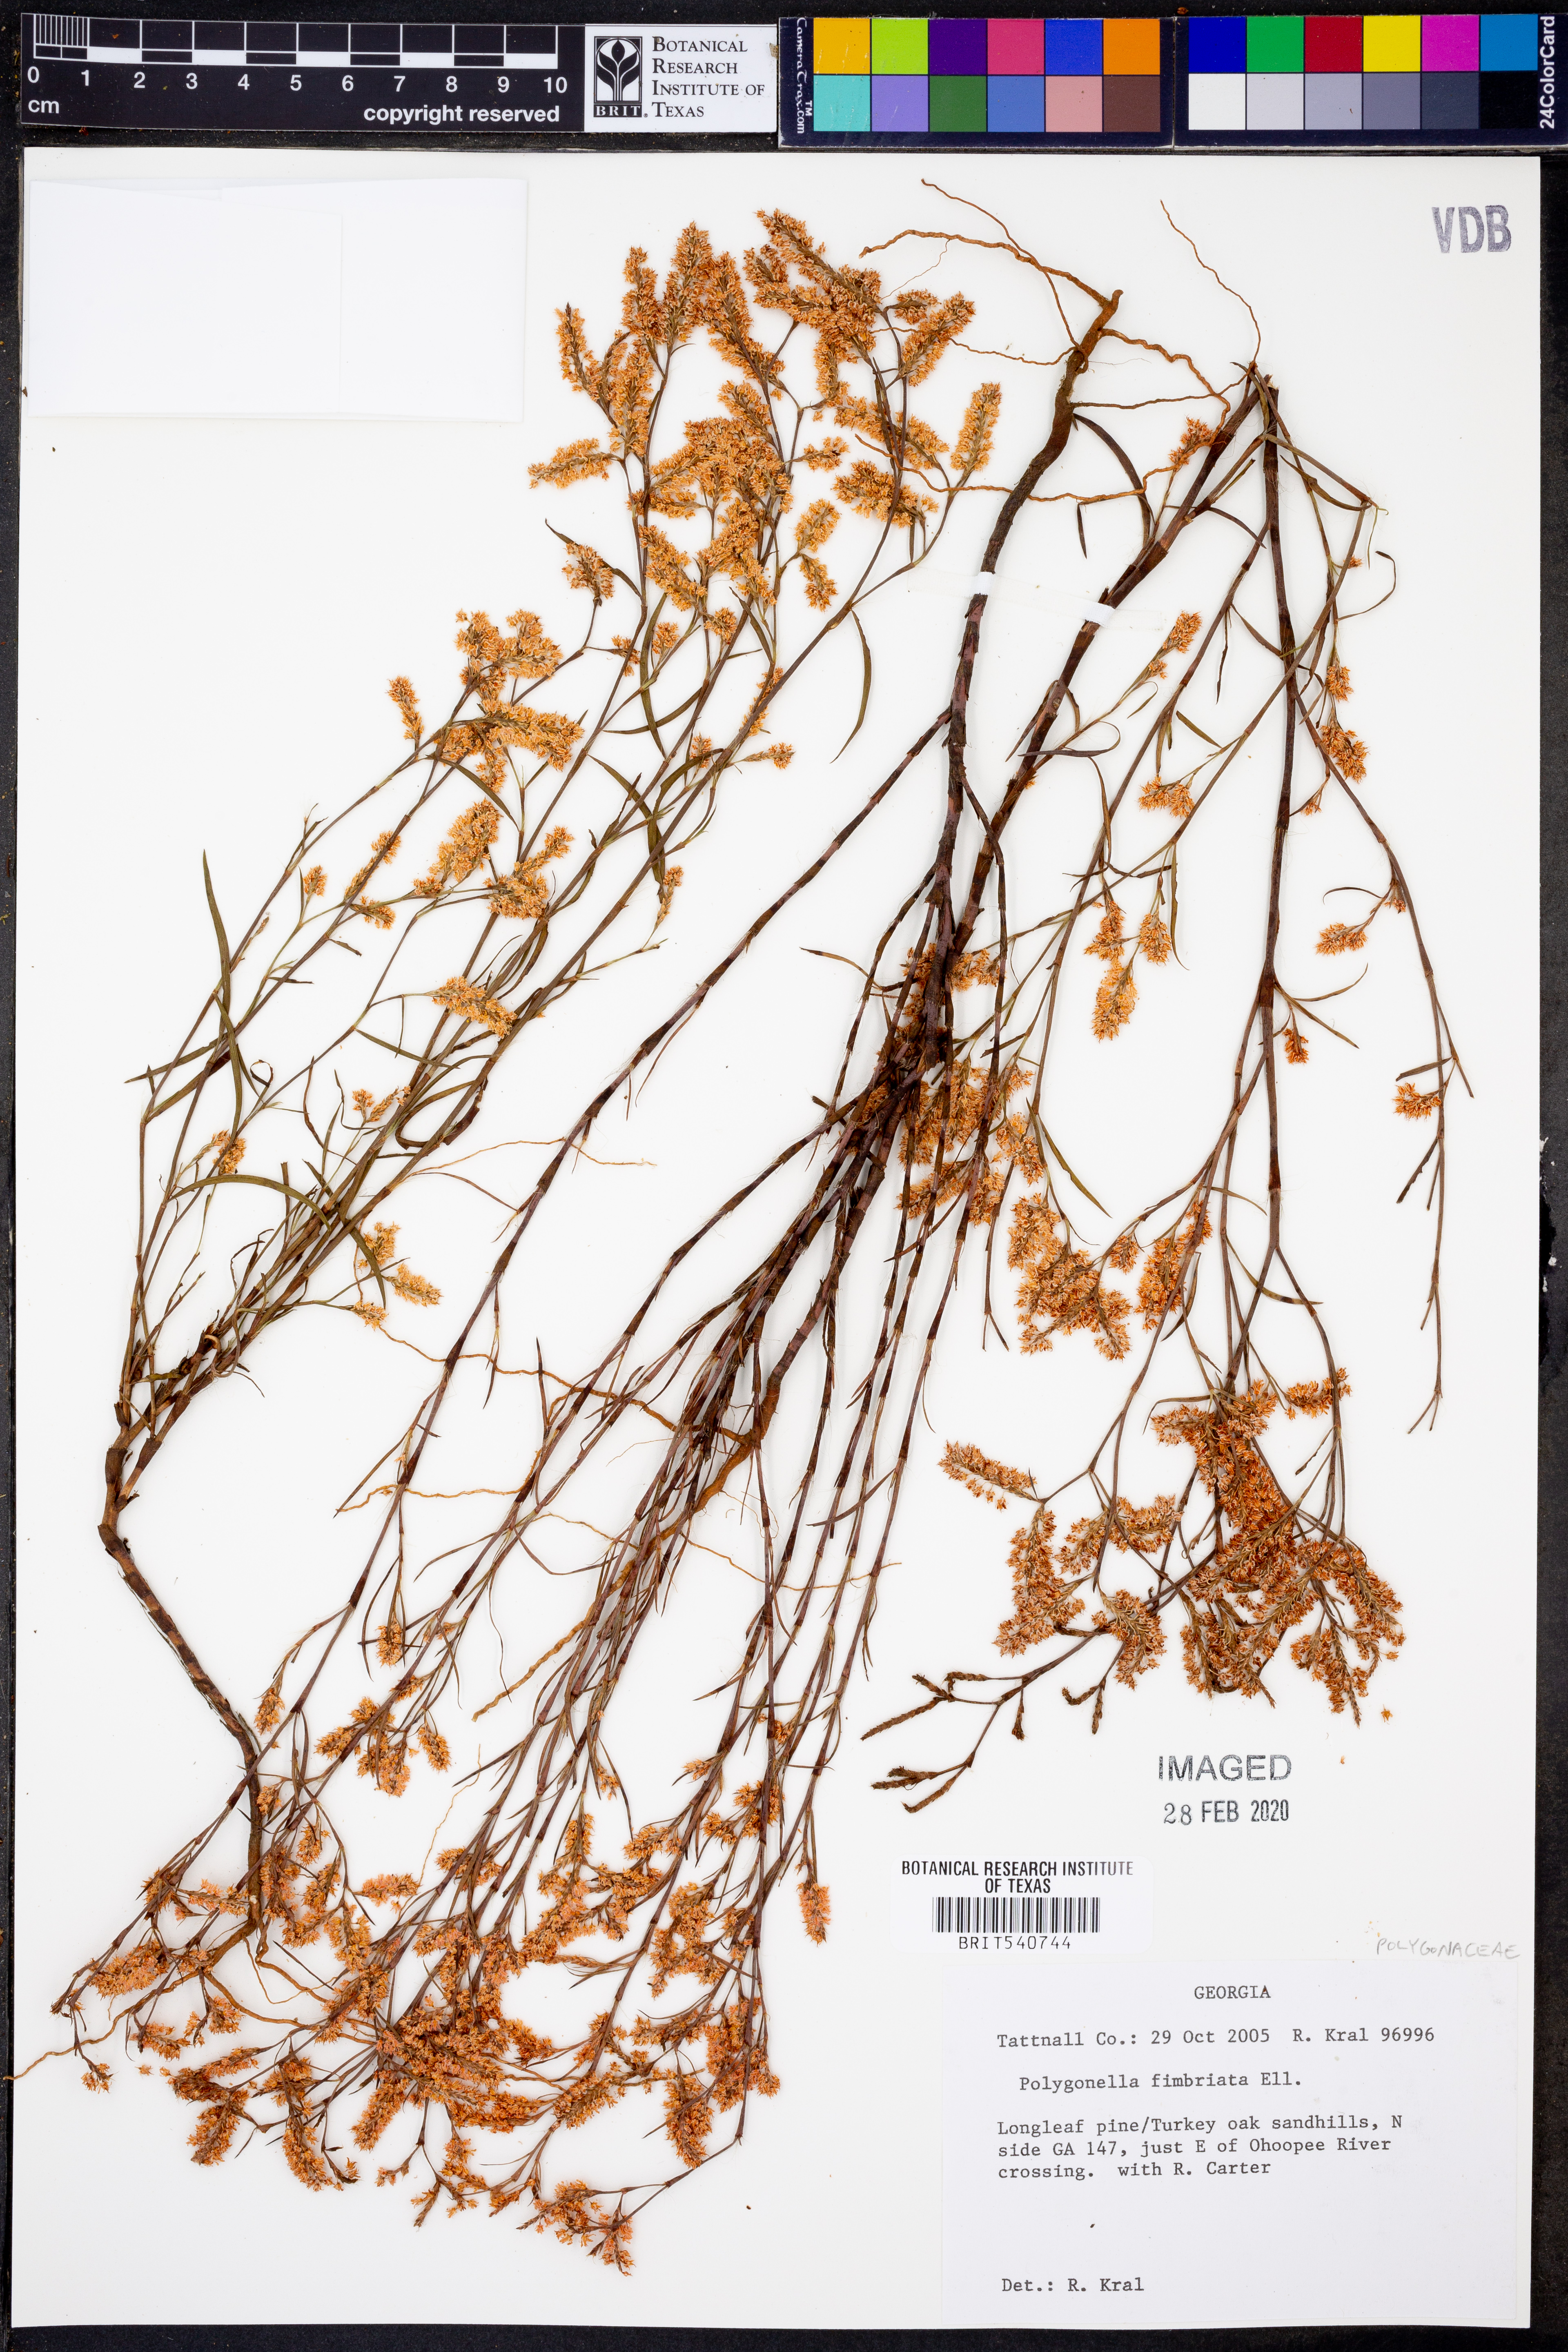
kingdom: Plantae
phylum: Tracheophyta
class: Magnoliopsida
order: Caryophyllales
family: Polygonaceae
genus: Polygonella
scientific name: Polygonella fimbriata
